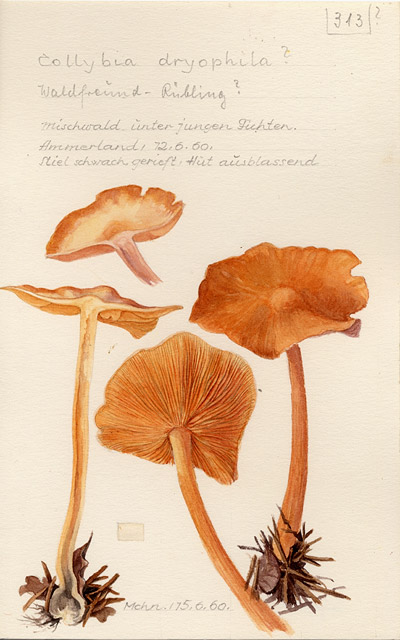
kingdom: Fungi
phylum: Basidiomycota
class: Agaricomycetes
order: Agaricales
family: Omphalotaceae
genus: Gymnopus
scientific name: Gymnopus dryophilus
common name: Penny top
